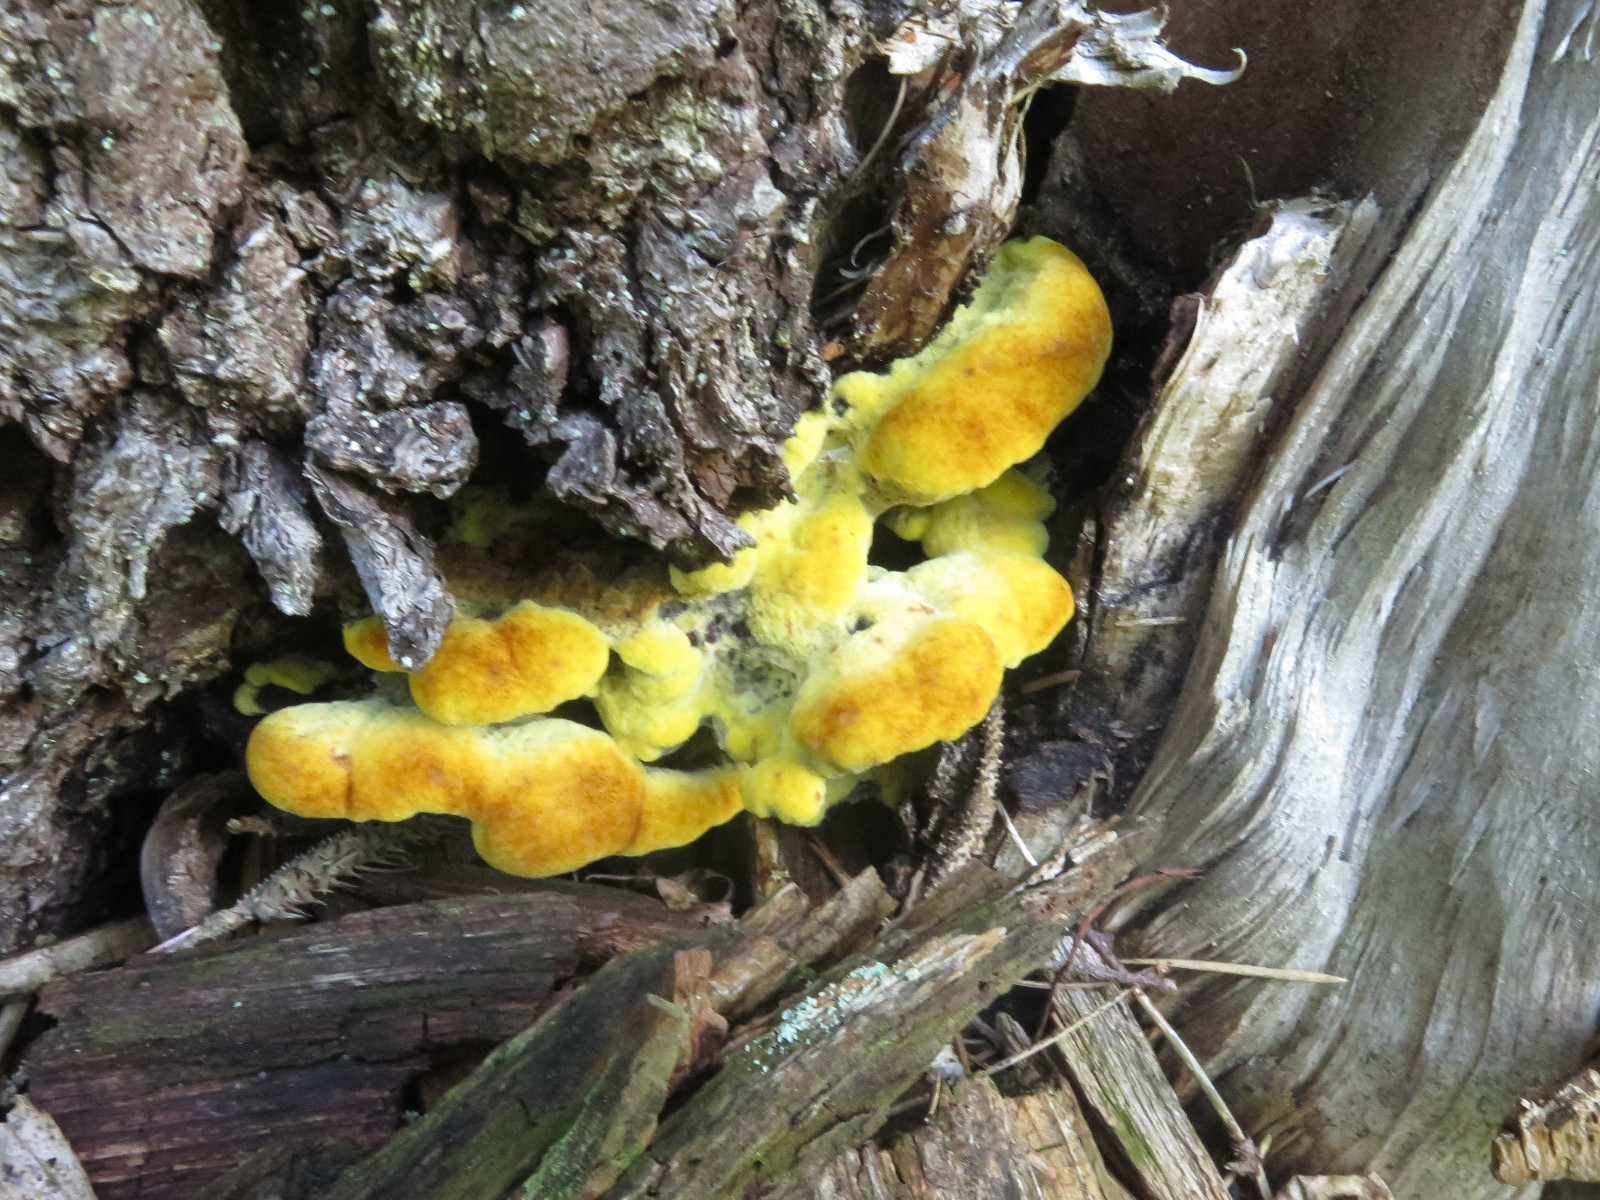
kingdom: Fungi
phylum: Basidiomycota
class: Agaricomycetes
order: Polyporales
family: Laetiporaceae
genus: Phaeolus
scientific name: Phaeolus schweinitzii
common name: brunporesvamp
